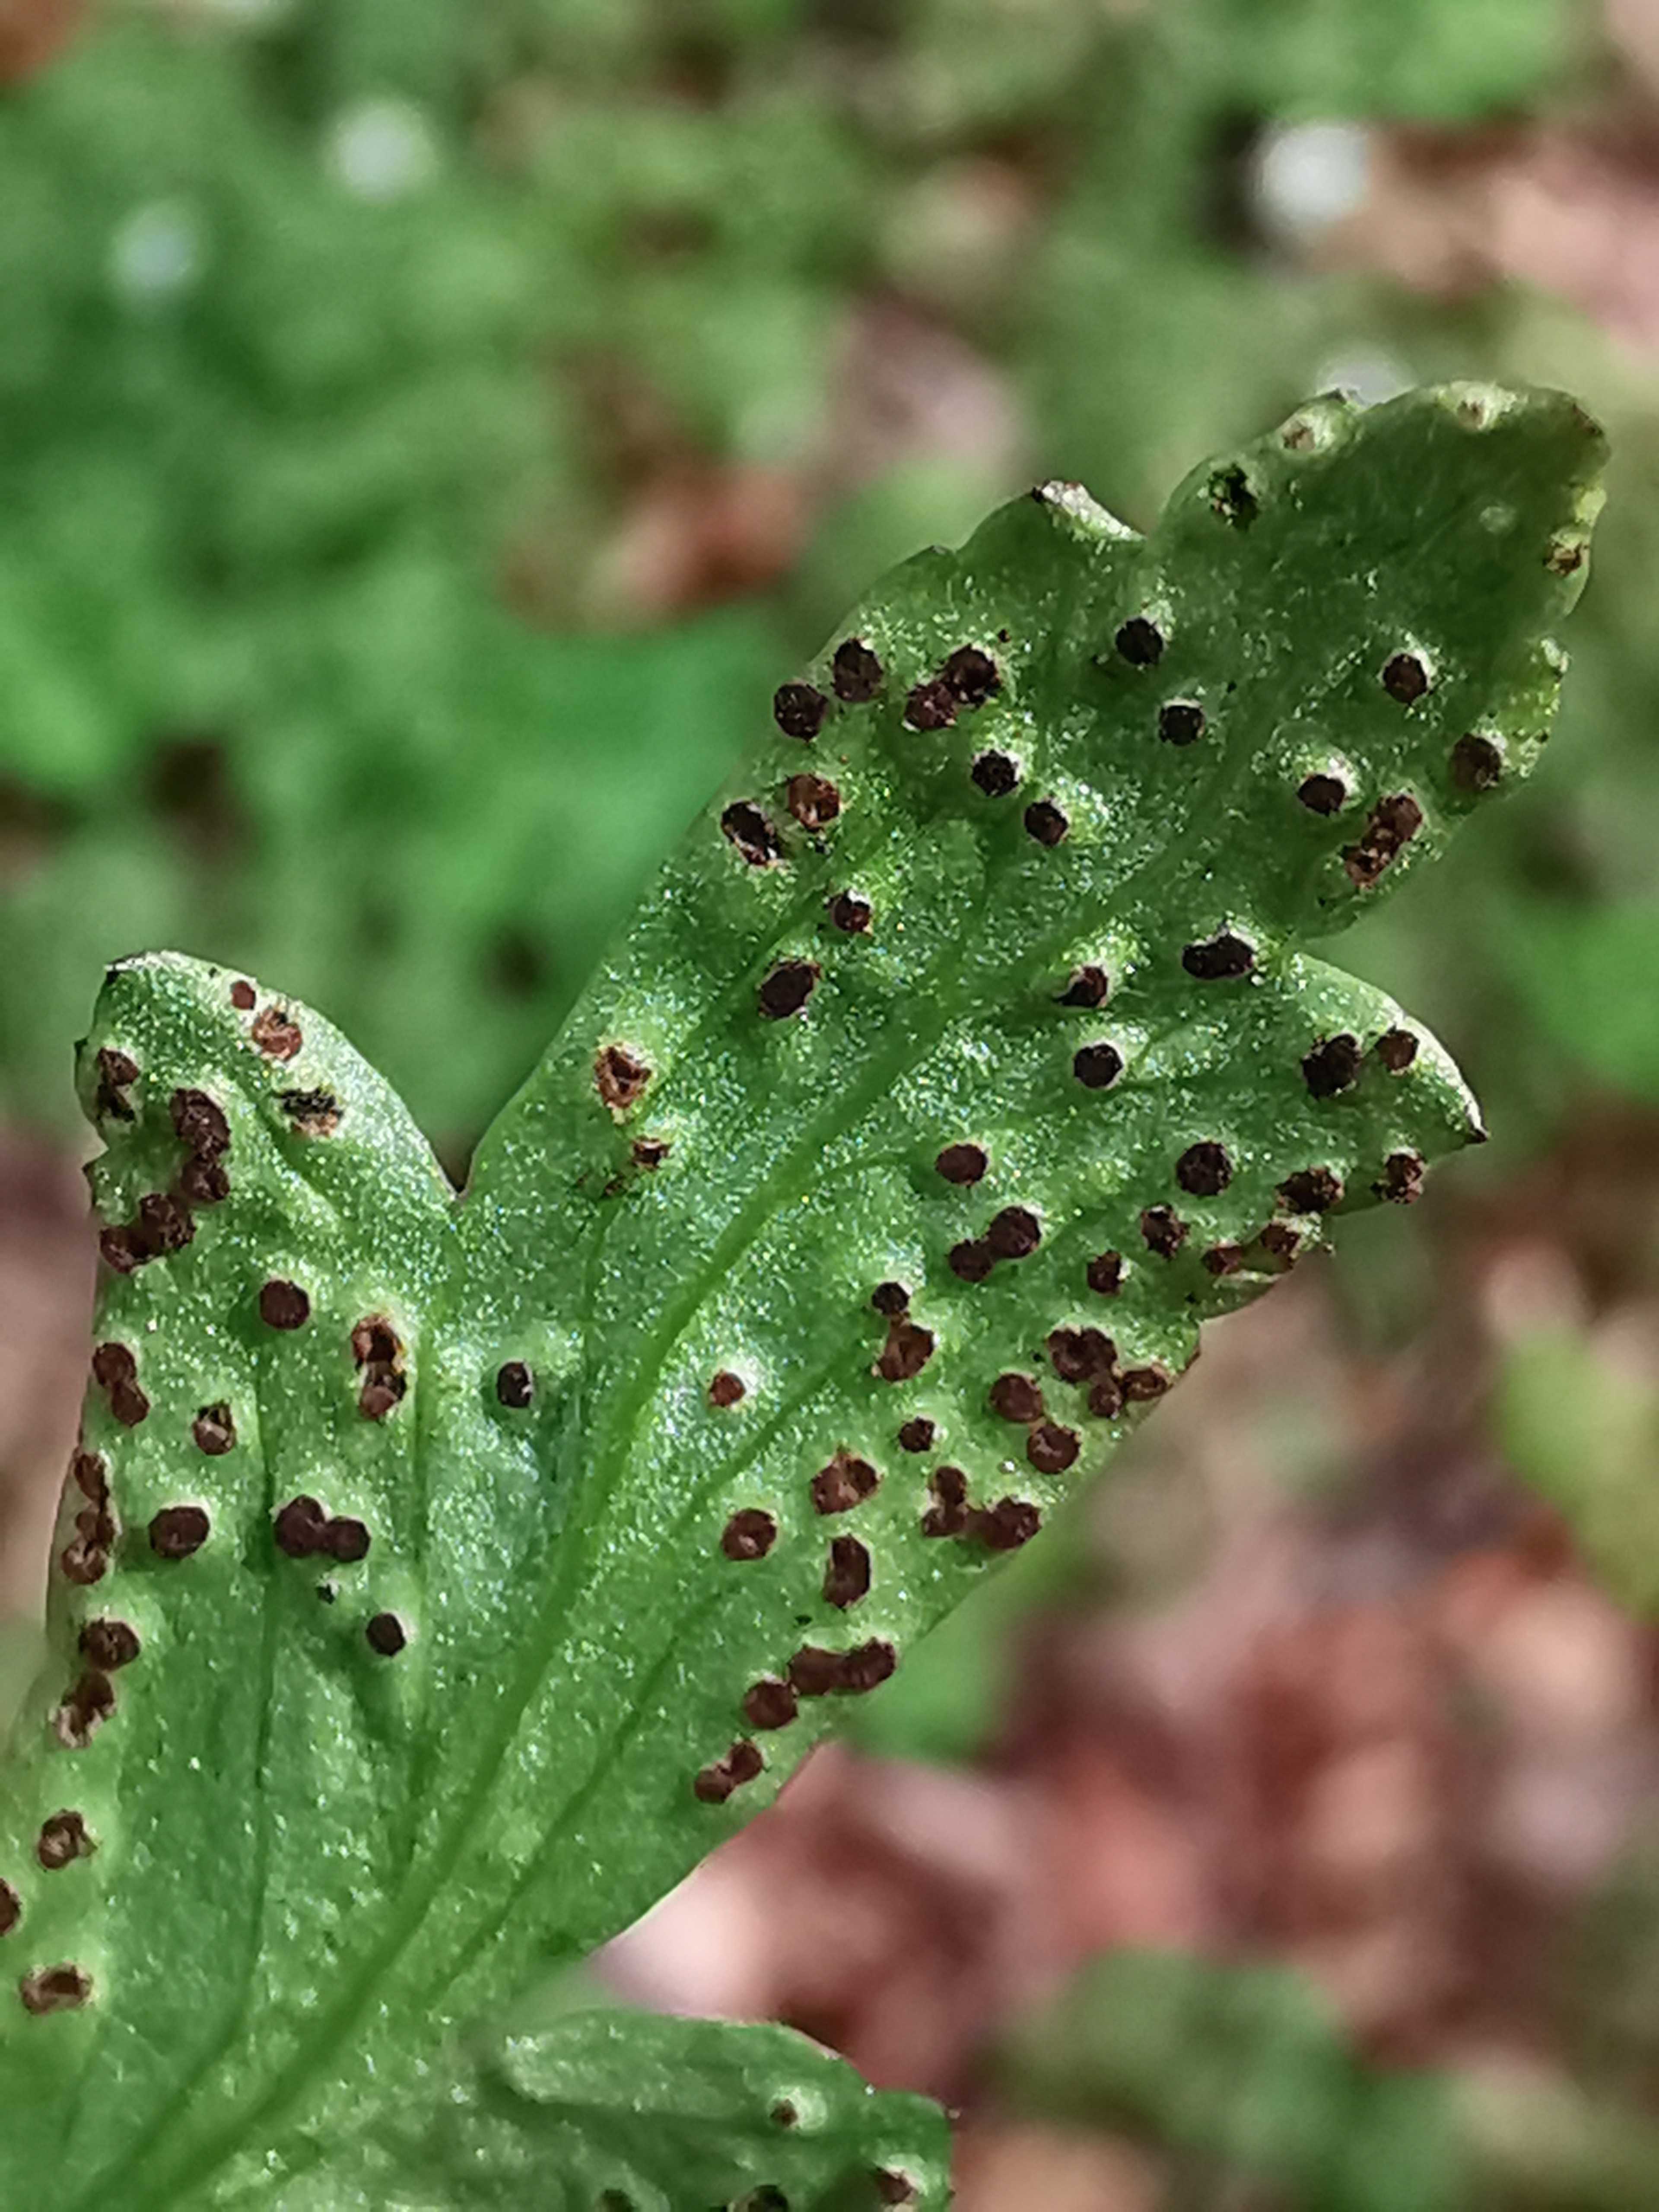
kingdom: Fungi
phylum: Basidiomycota
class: Pucciniomycetes
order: Pucciniales
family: Tranzscheliaceae
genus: Tranzschelia
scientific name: Tranzschelia anemones
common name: anemone-knæksporerust
